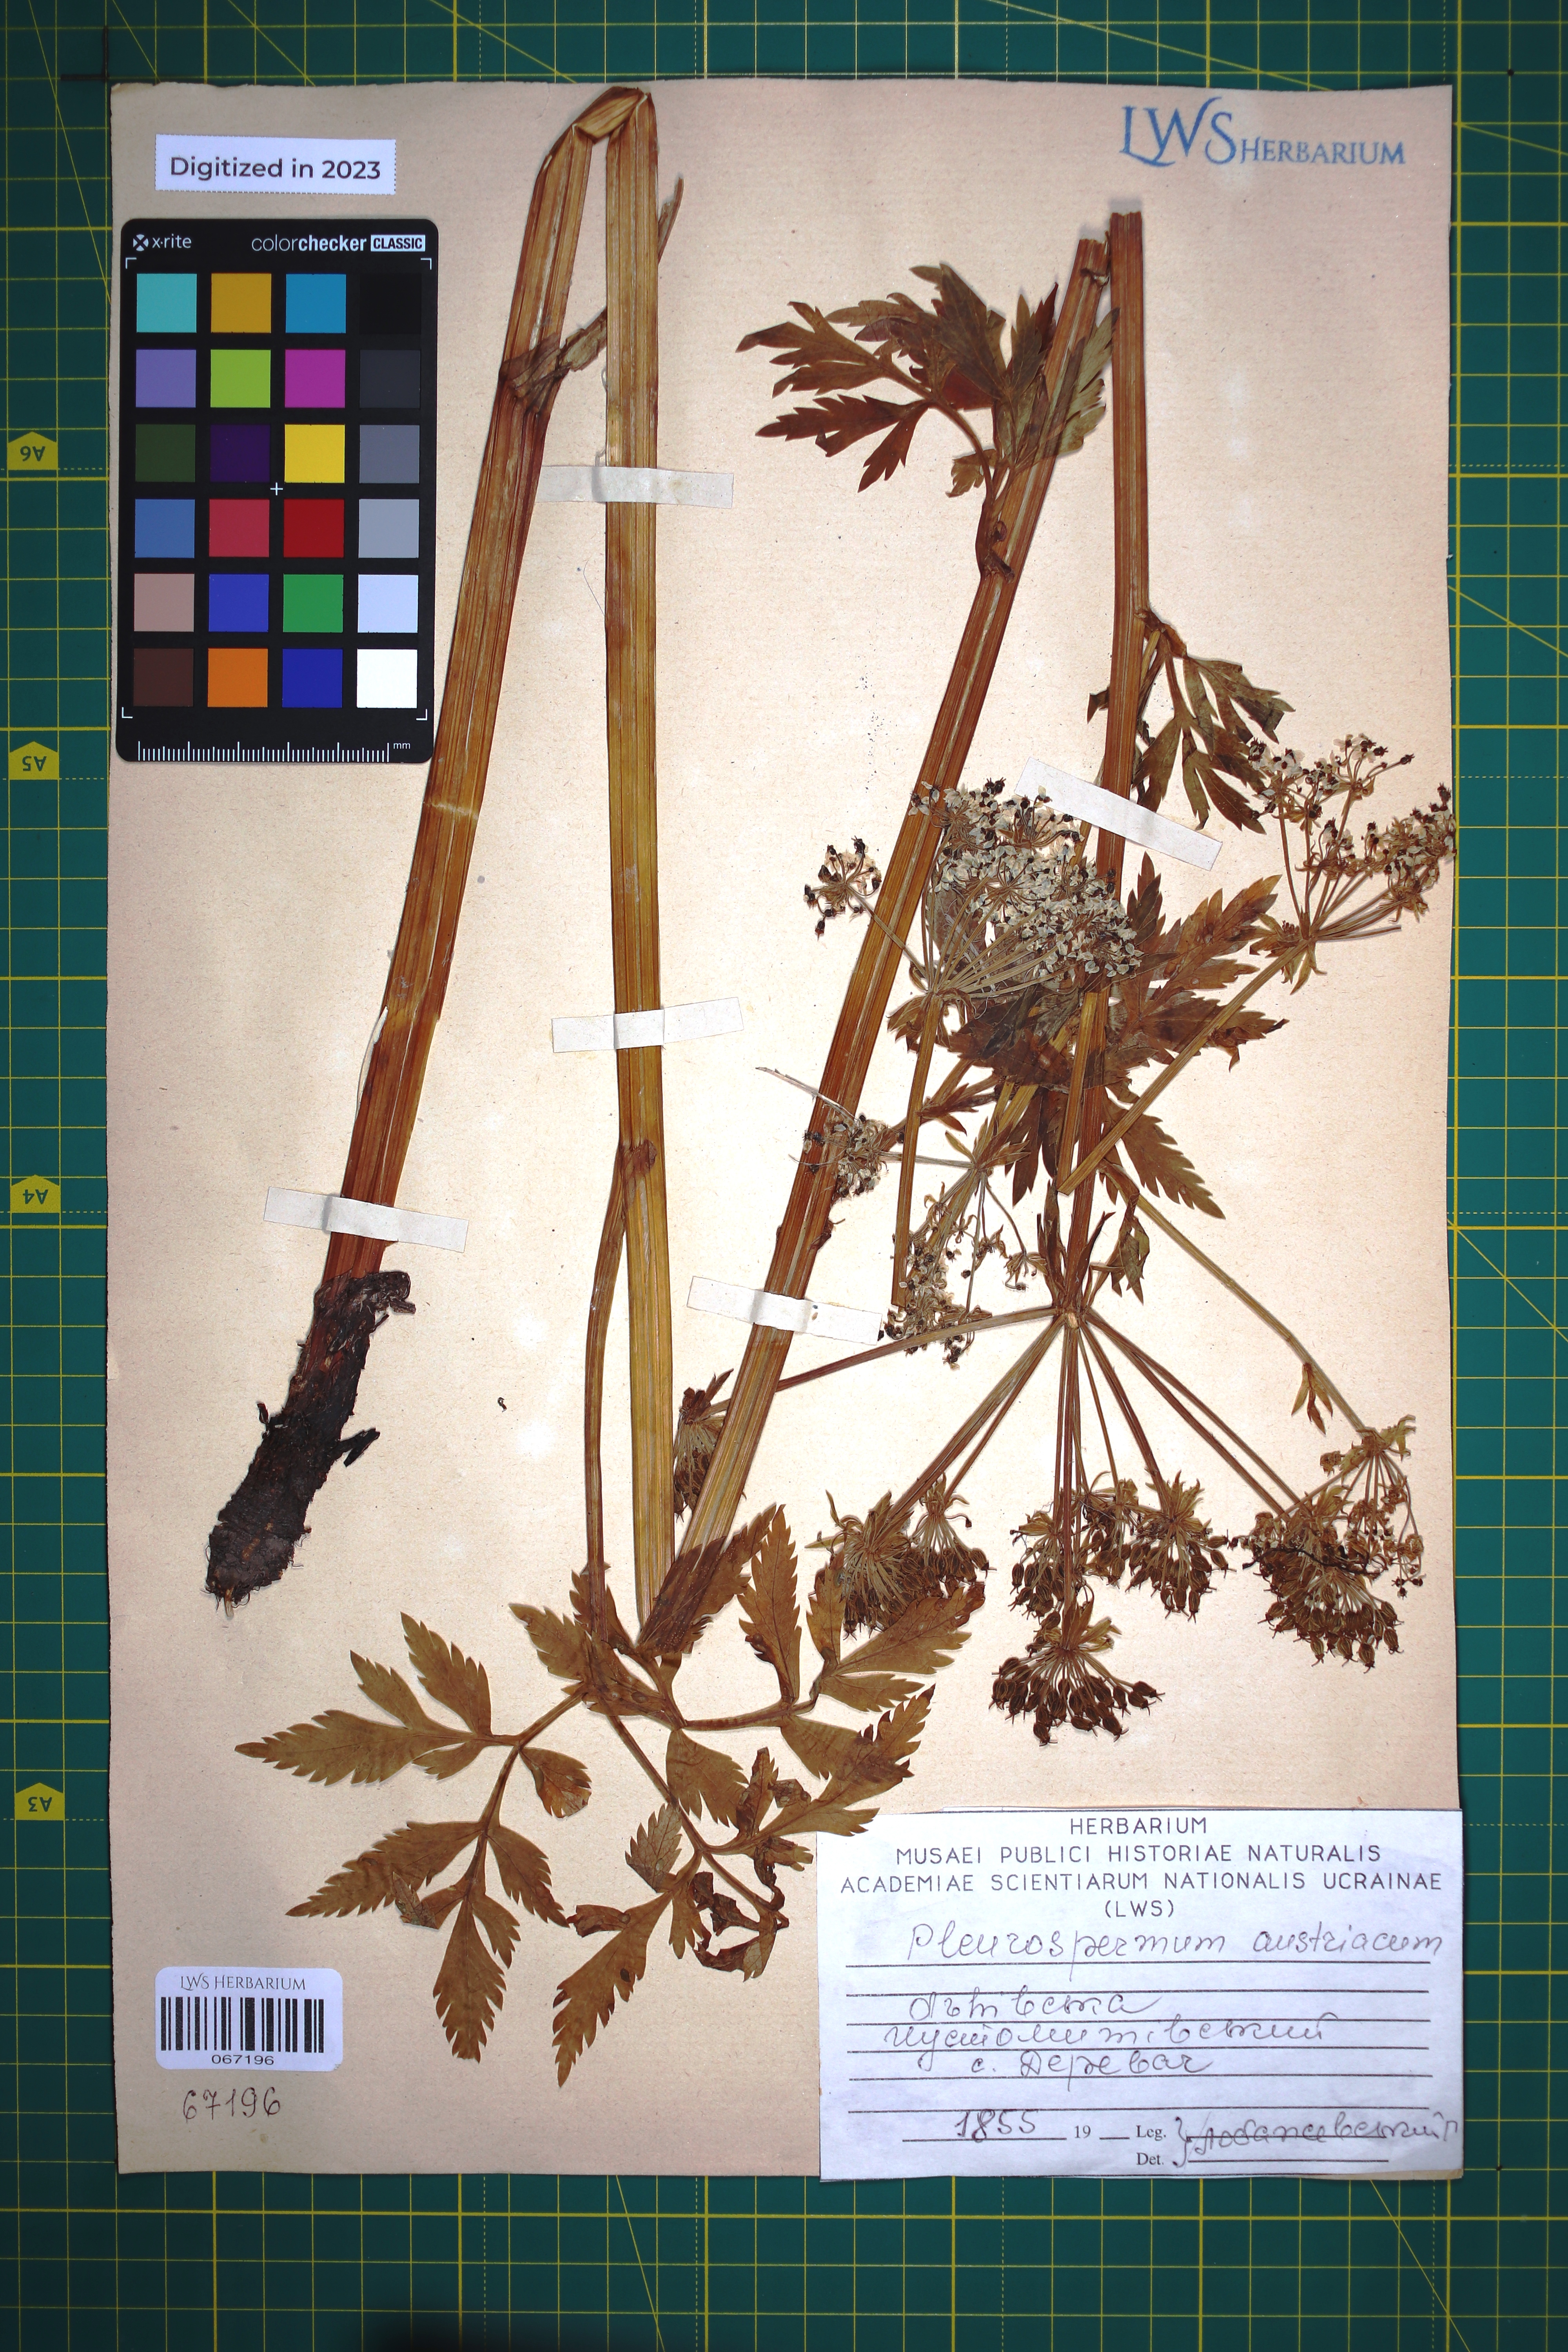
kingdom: Plantae
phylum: Tracheophyta
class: Magnoliopsida
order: Apiales
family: Apiaceae
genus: Pleurospermum
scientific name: Pleurospermum austriacum
